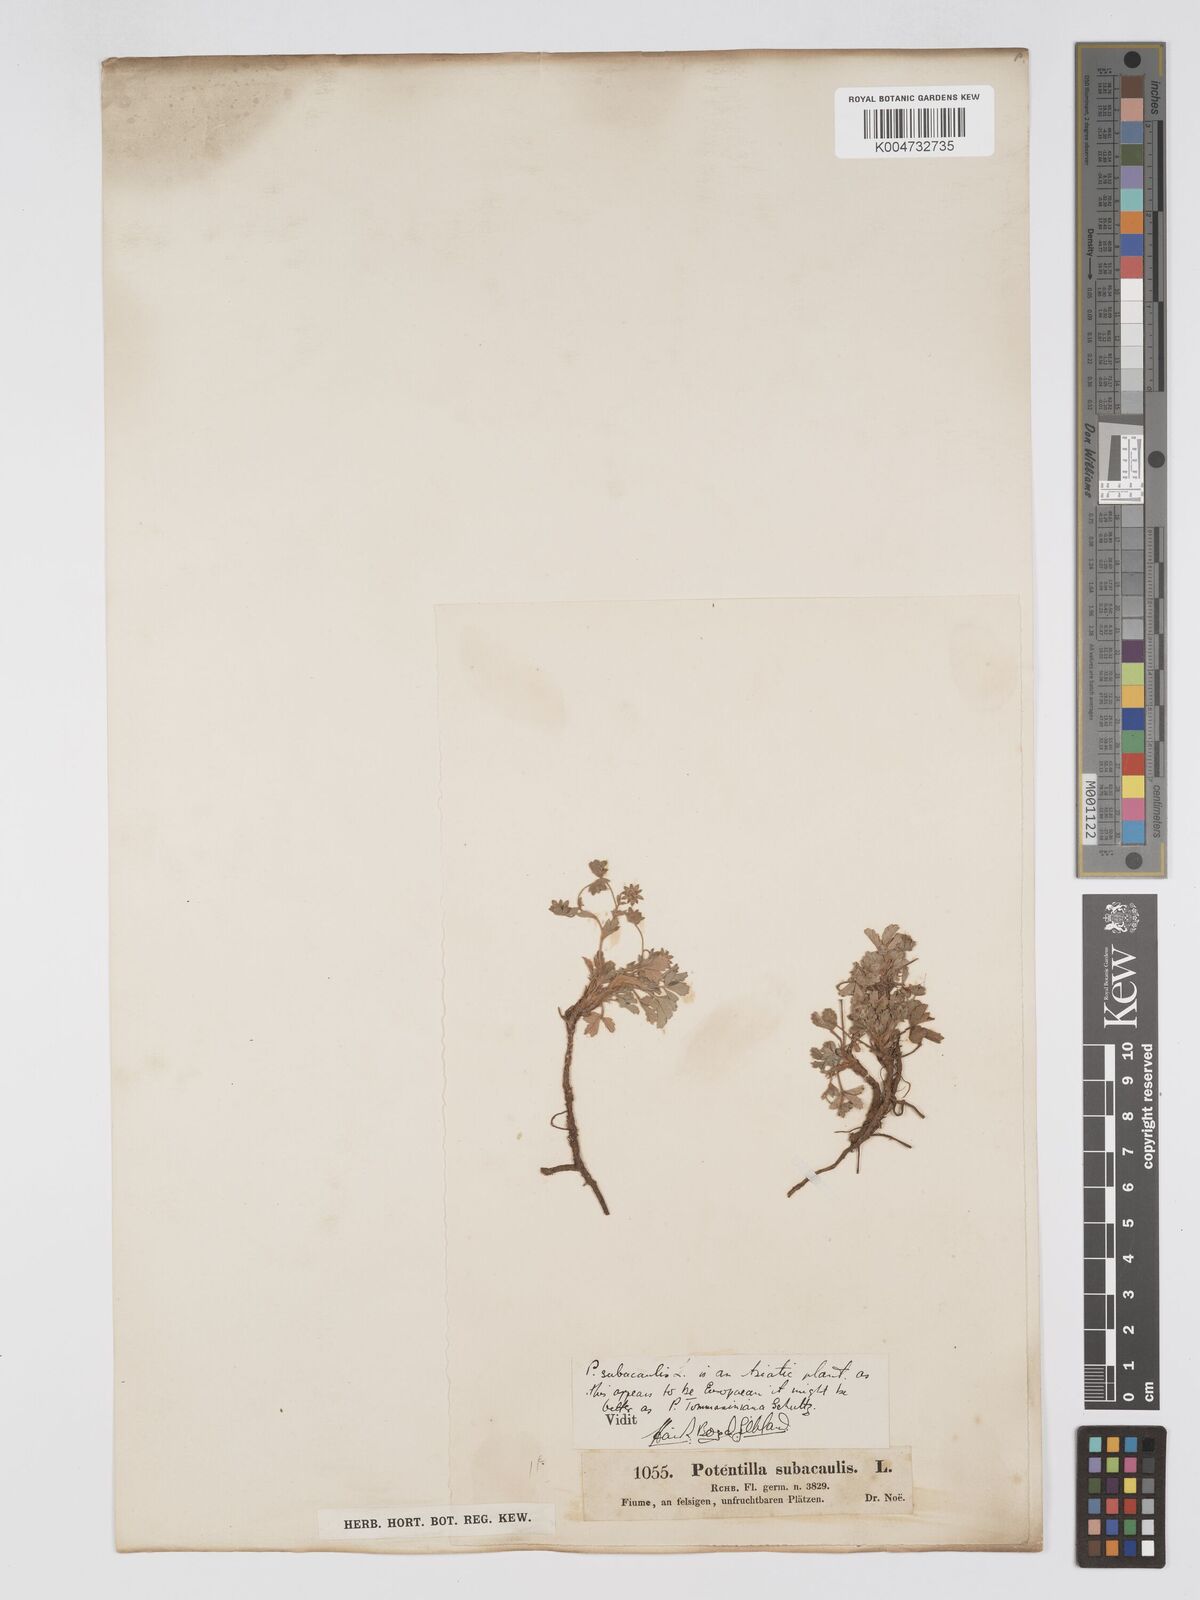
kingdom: Plantae
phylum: Tracheophyta
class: Magnoliopsida
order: Rosales
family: Rosaceae
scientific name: Rosaceae
